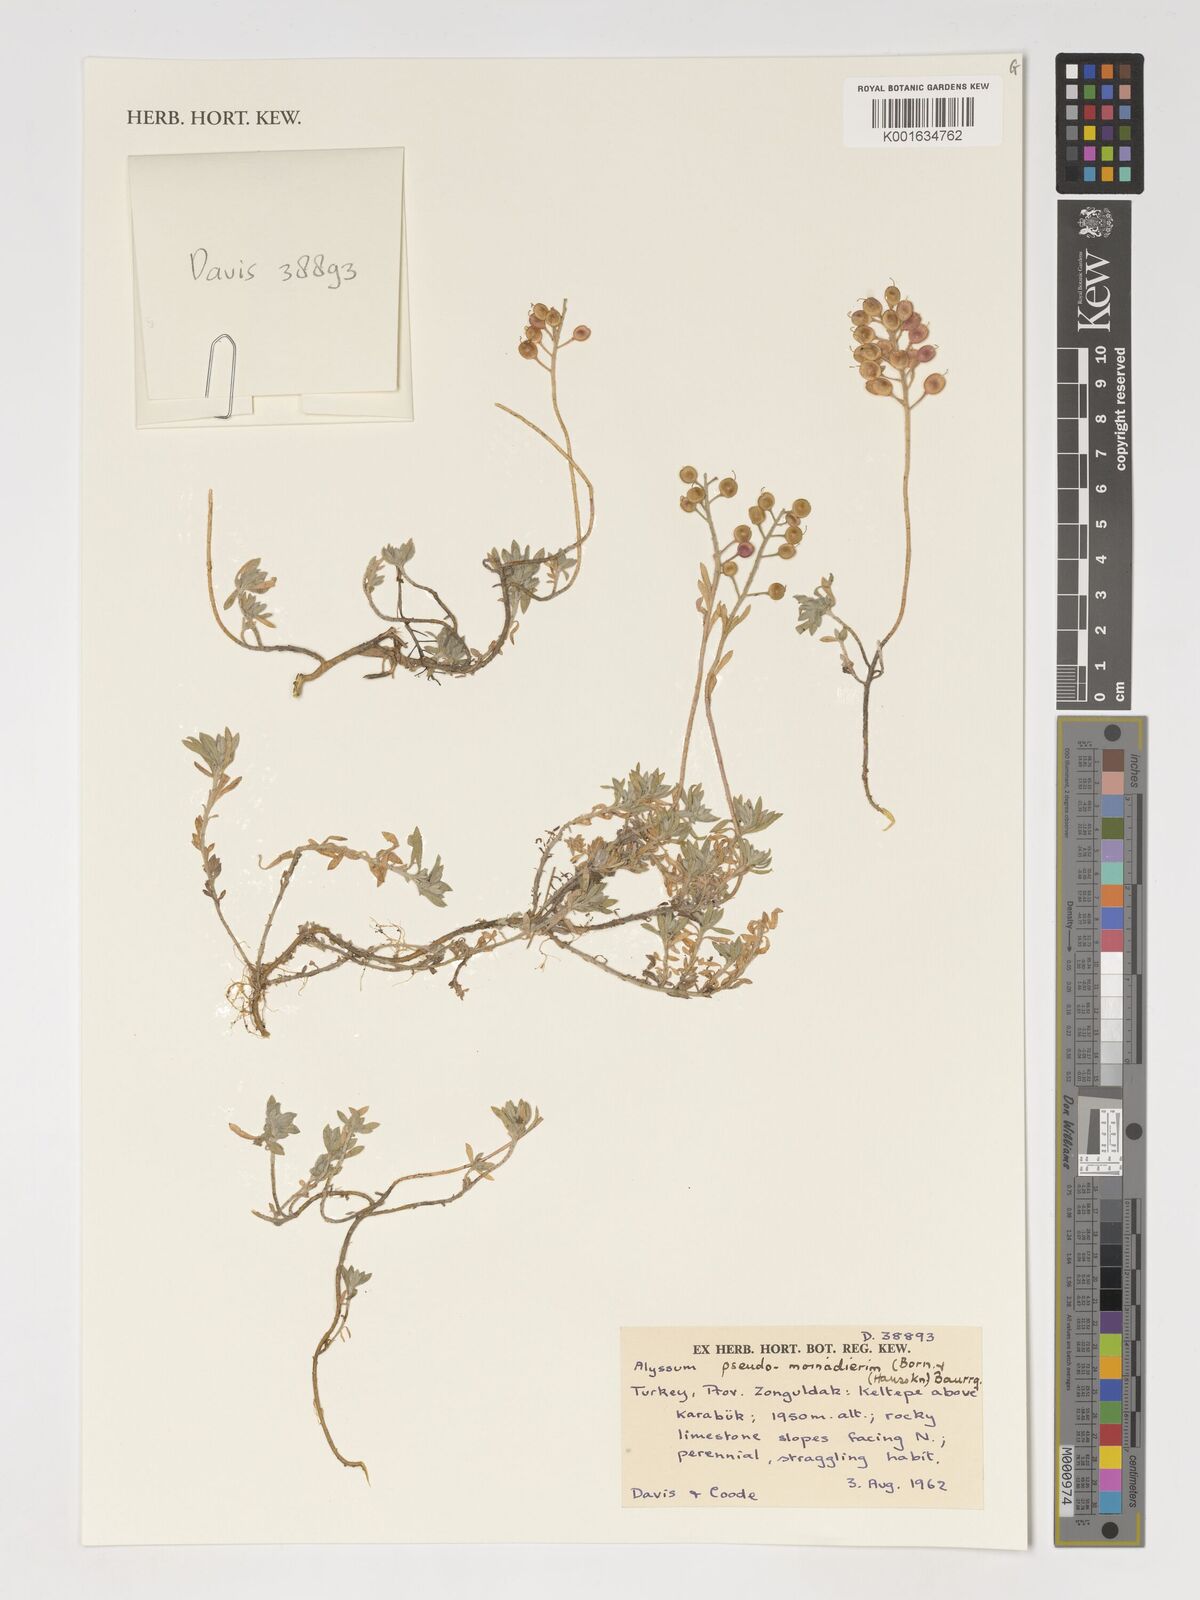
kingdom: Plantae
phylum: Tracheophyta
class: Magnoliopsida
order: Brassicales
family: Brassicaceae
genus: Alyssum
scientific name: Alyssum pseudomouradicum
